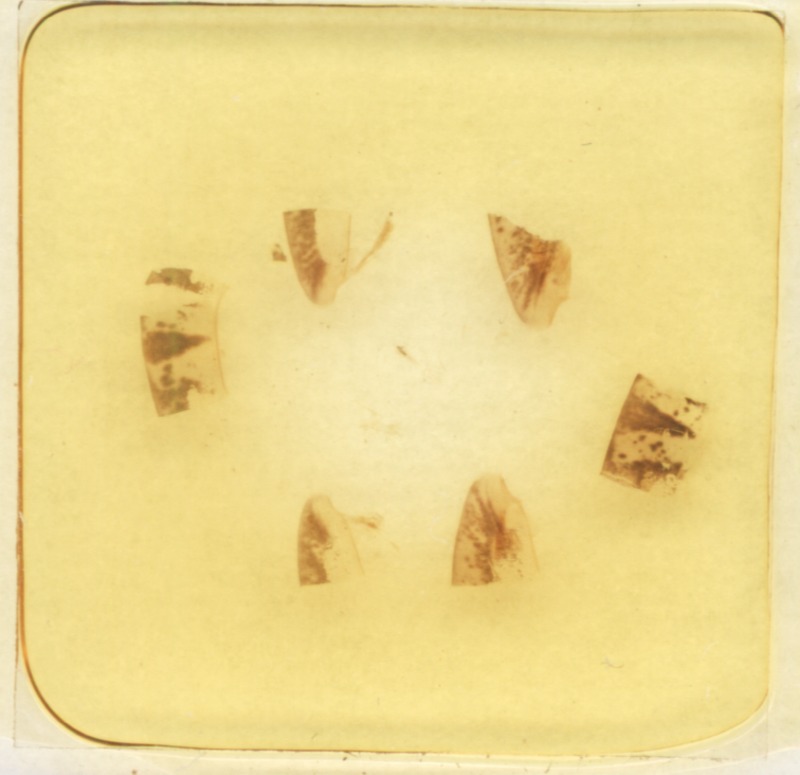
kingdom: Animalia
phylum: Arthropoda
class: Diplopoda
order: Glomerida
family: Glomeridae
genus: Glomeris
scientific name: Glomeris klugii
